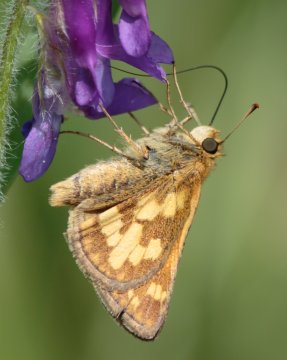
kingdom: Animalia
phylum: Arthropoda
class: Insecta
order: Lepidoptera
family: Hesperiidae
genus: Polites
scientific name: Polites coras
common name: Peck's Skipper
